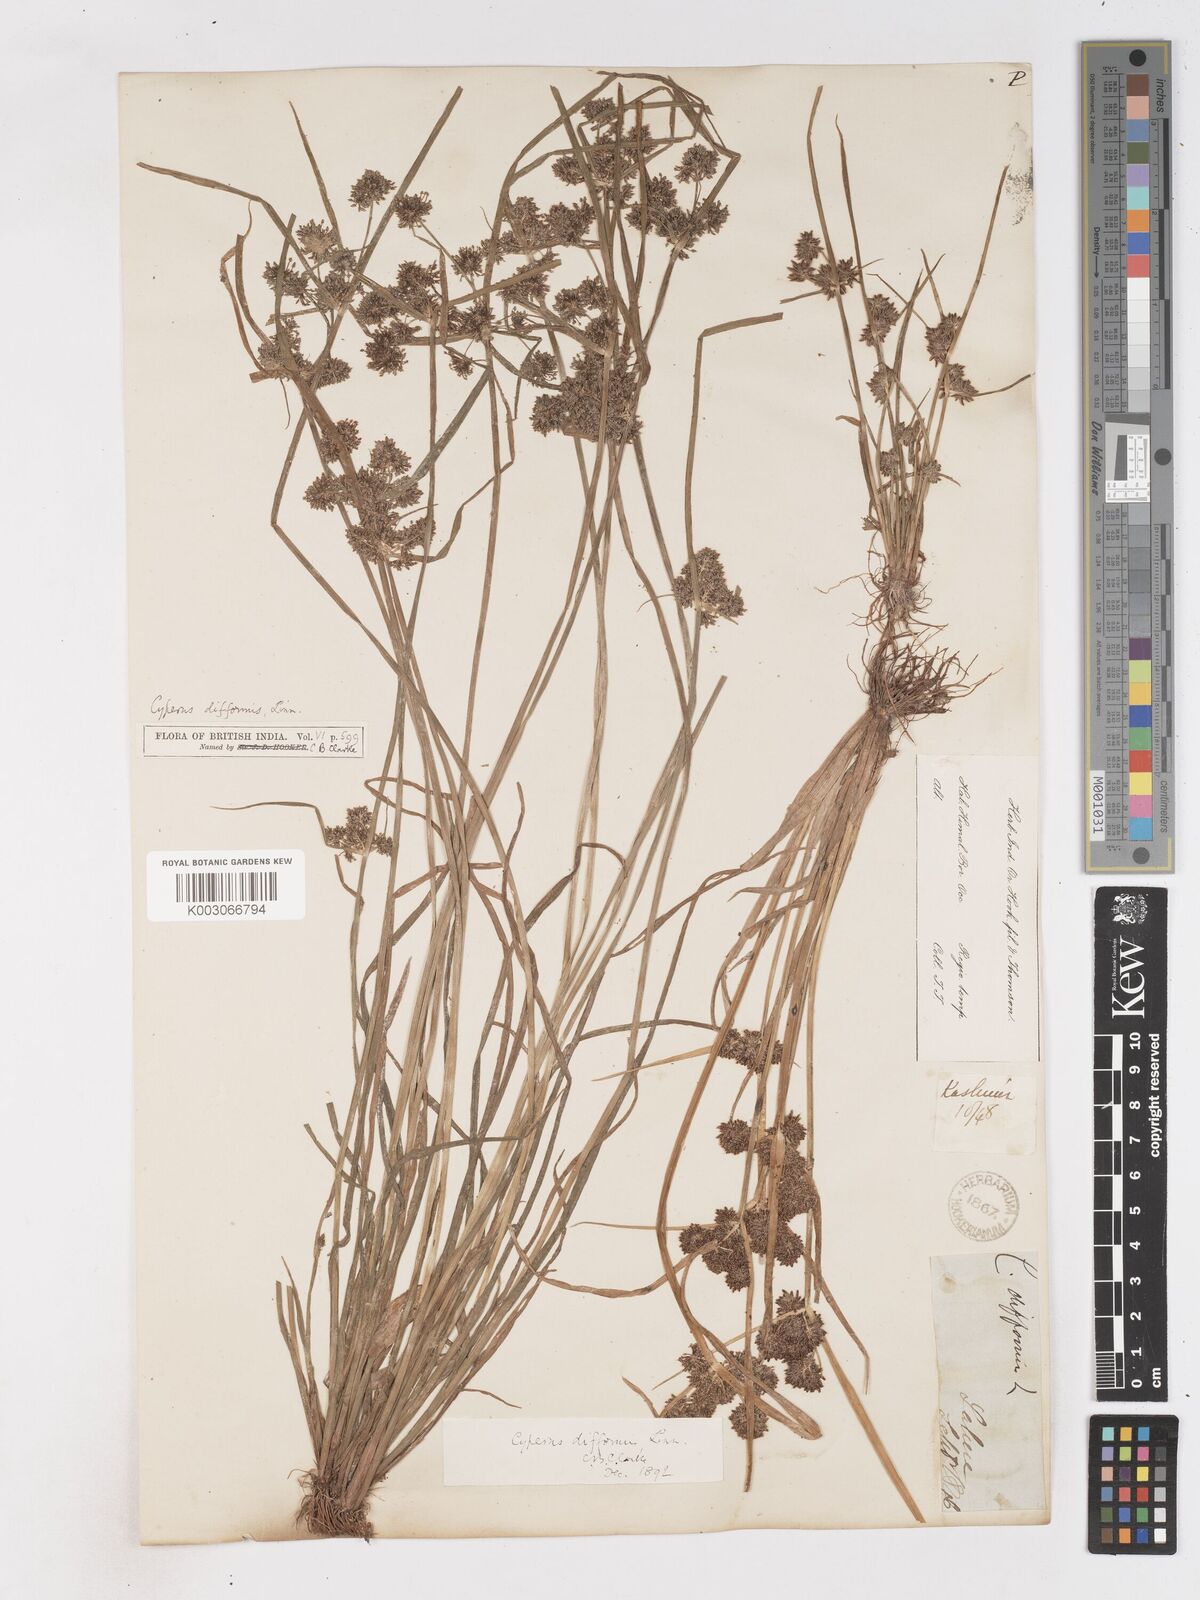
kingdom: Plantae
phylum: Tracheophyta
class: Liliopsida
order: Poales
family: Cyperaceae
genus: Cyperus
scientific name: Cyperus difformis
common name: Variable flatsedge
